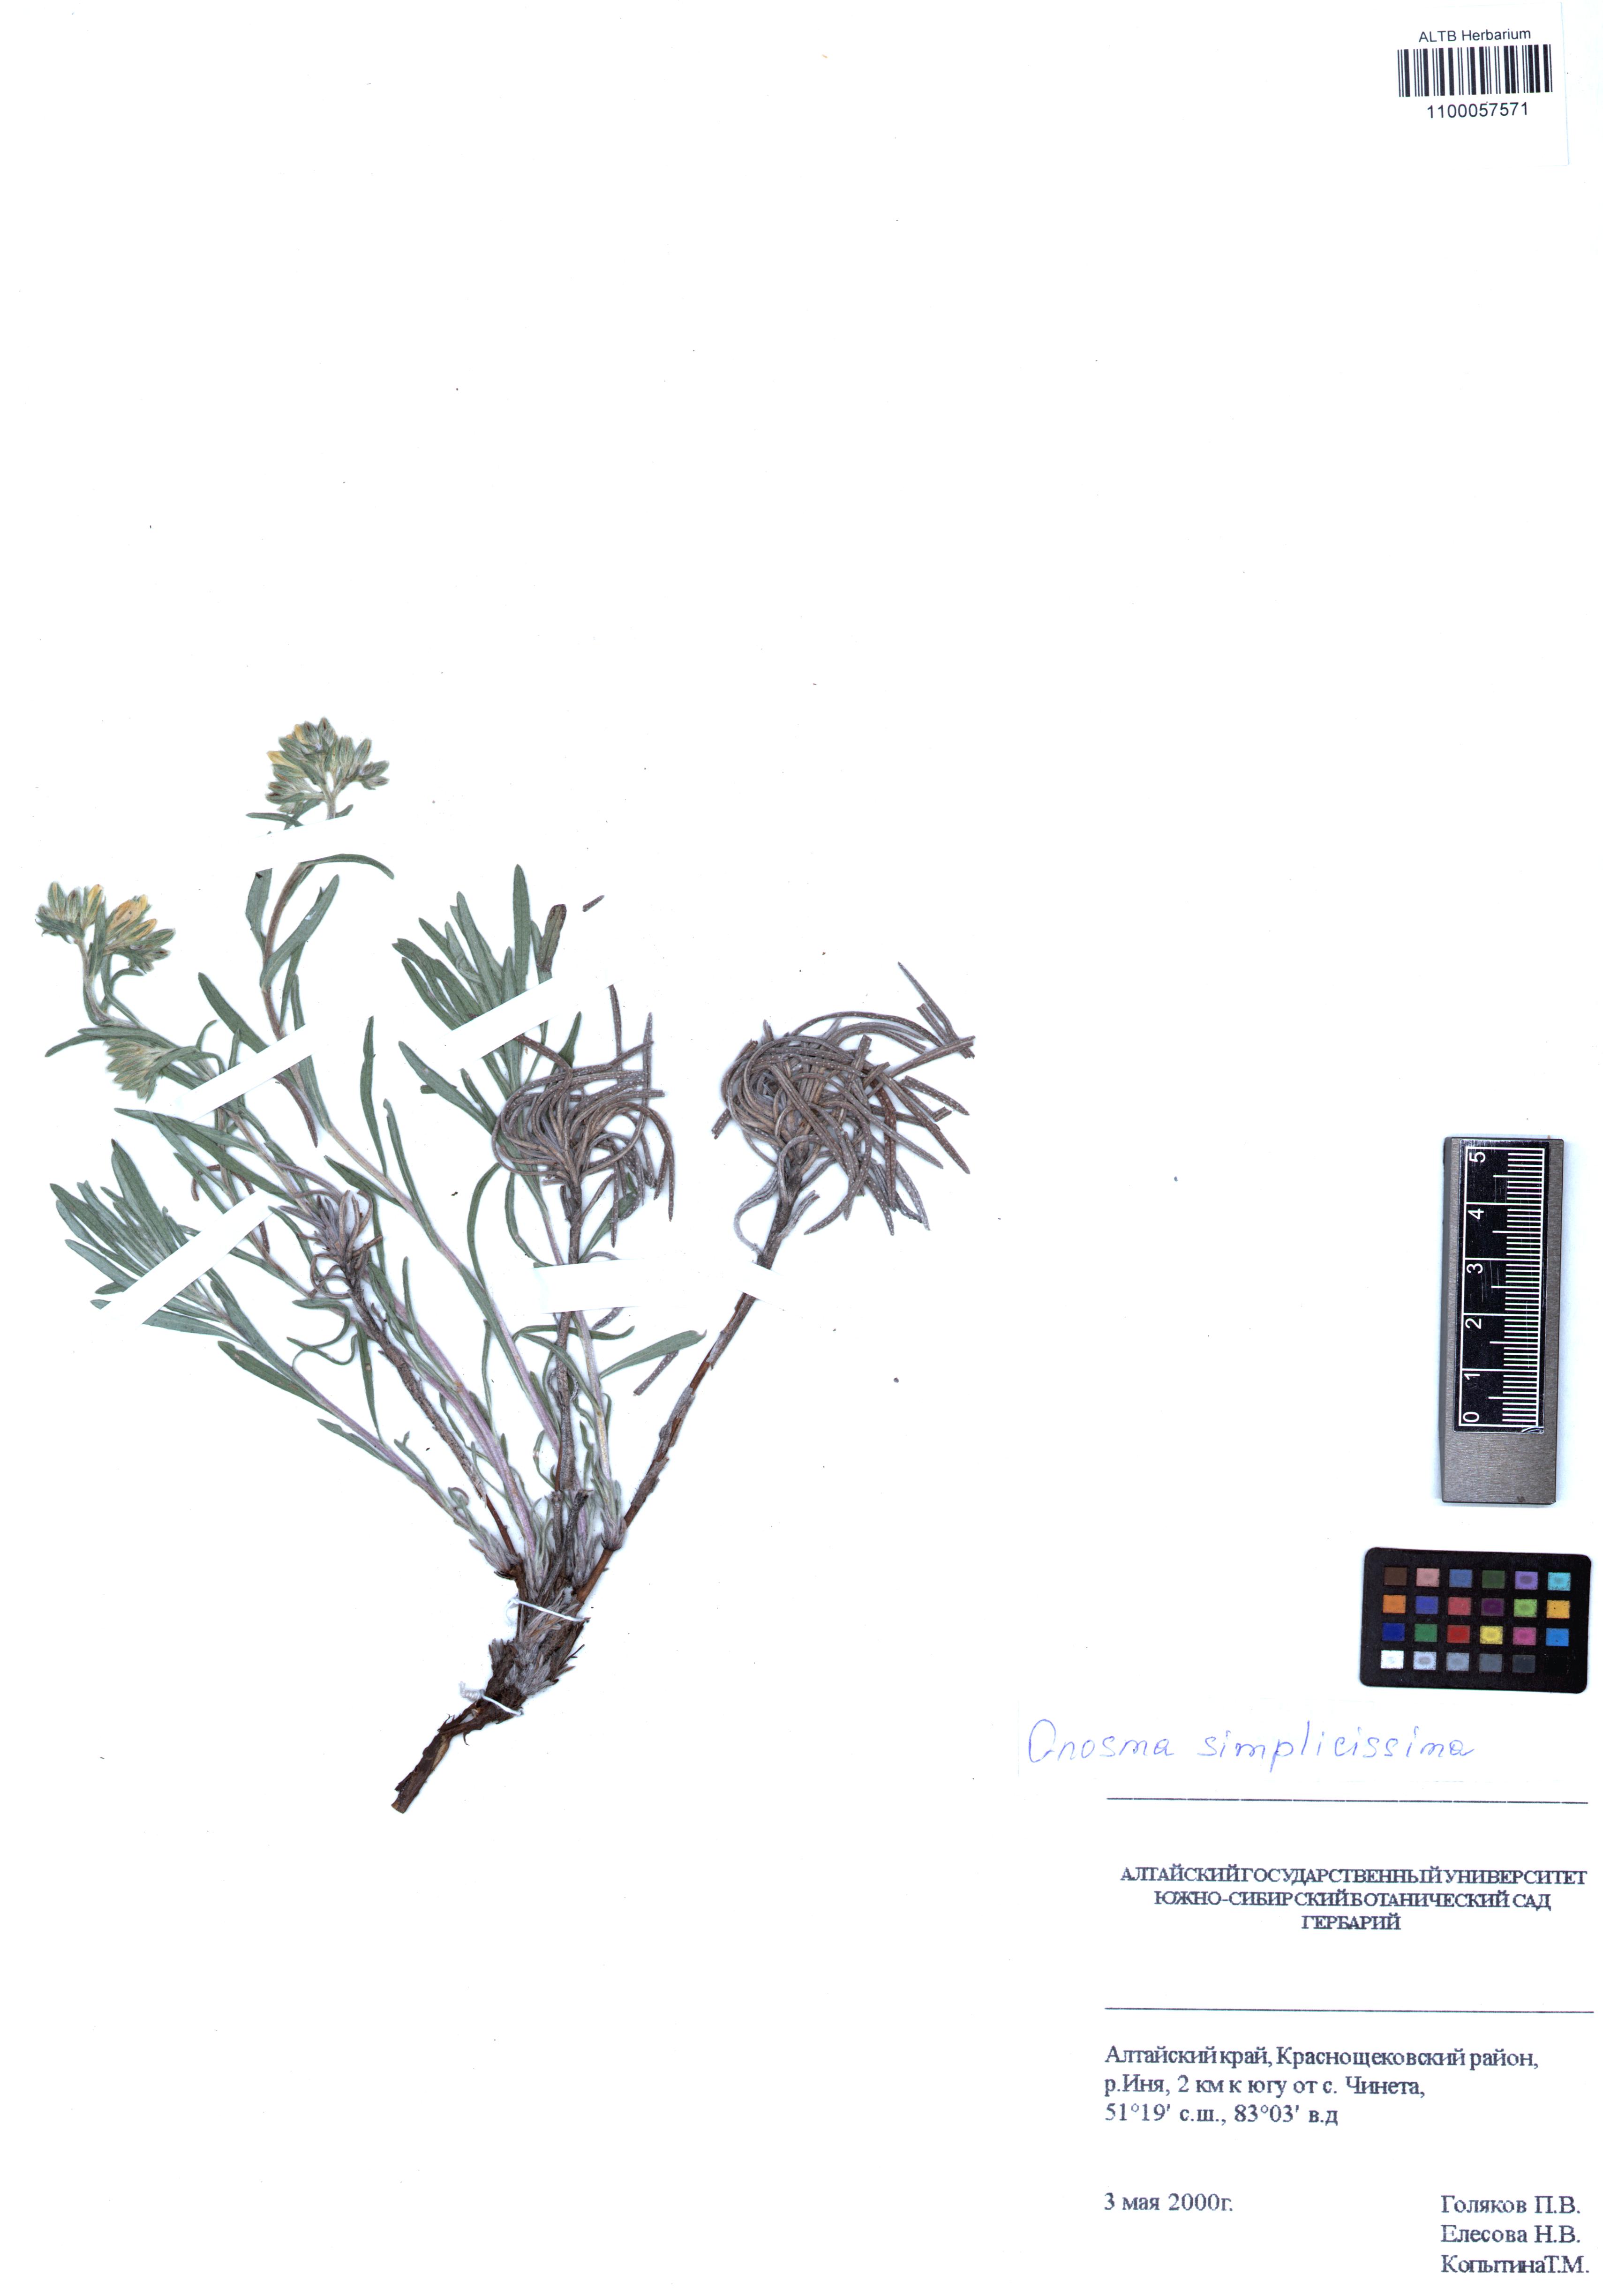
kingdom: Plantae
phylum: Tracheophyta
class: Magnoliopsida
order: Boraginales
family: Boraginaceae
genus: Onosma
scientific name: Onosma simplicissima
